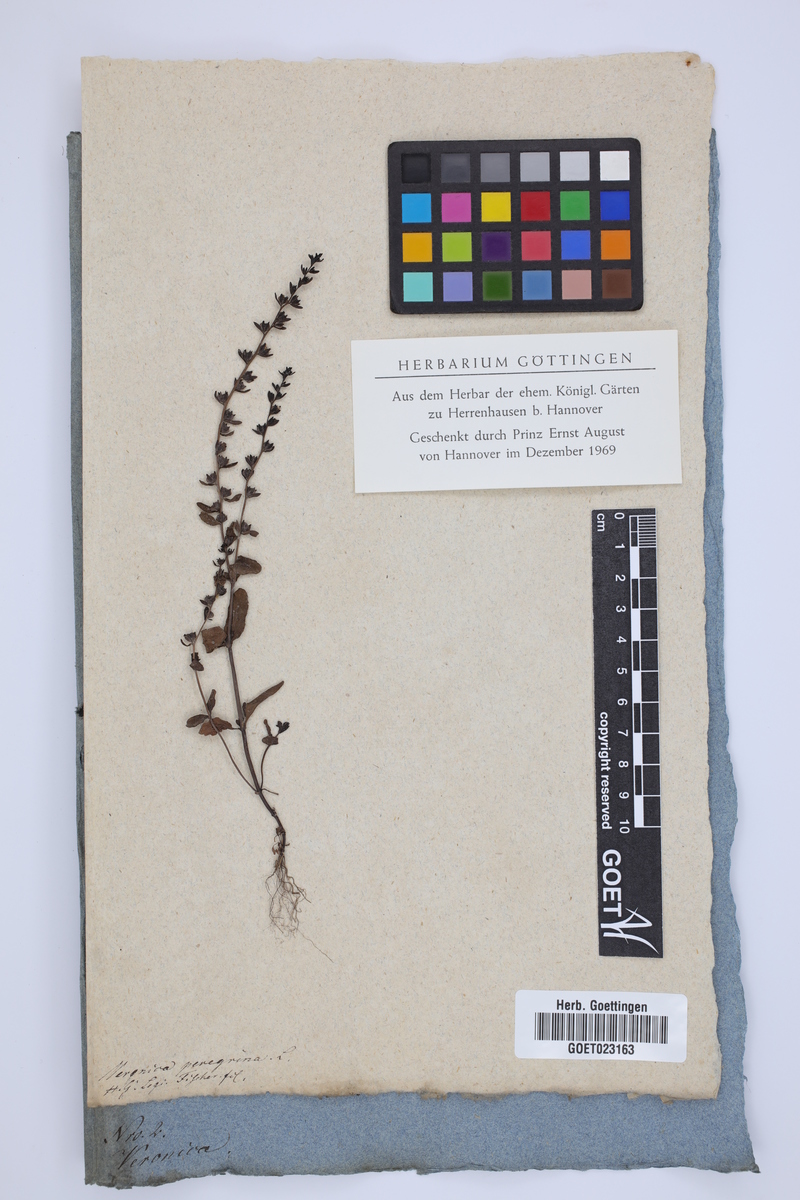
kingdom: Plantae
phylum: Tracheophyta
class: Magnoliopsida
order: Lamiales
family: Plantaginaceae
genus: Veronica
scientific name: Veronica peregrina
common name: Neckweed
